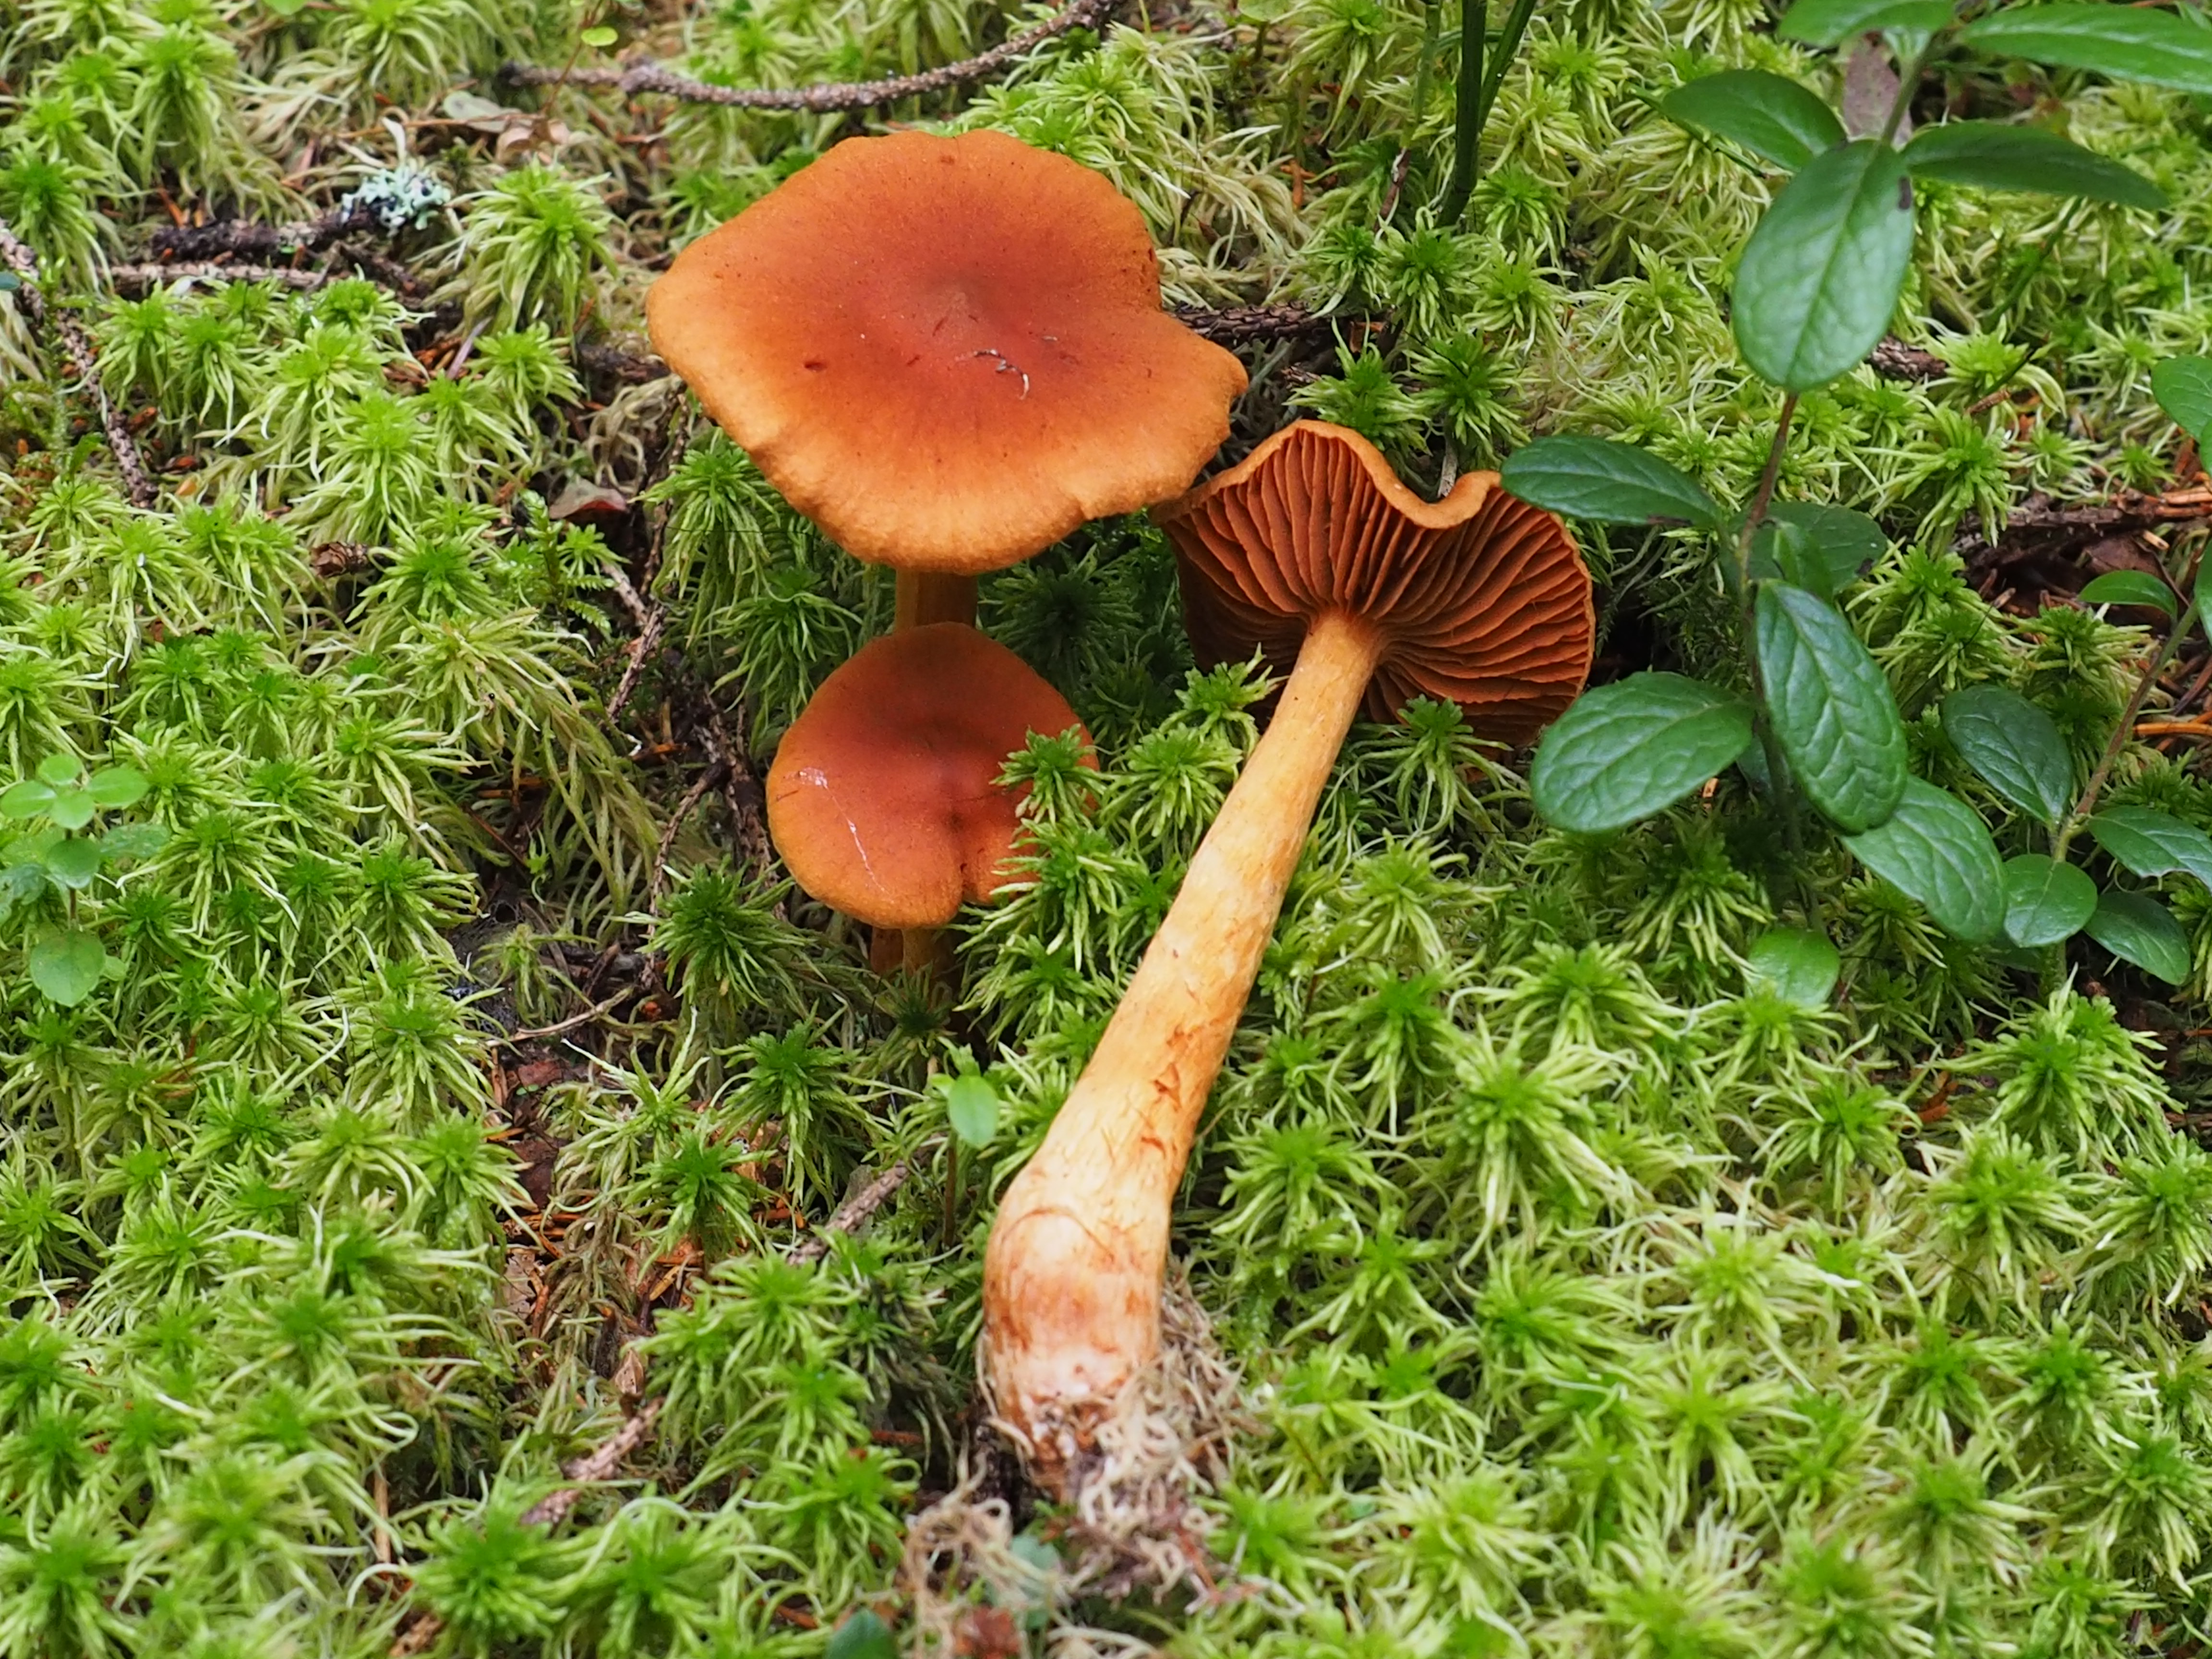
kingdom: Fungi
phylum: Basidiomycota
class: Agaricomycetes
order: Agaricales
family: Cortinariaceae
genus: Cortinarius
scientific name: Cortinarius rubellus
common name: Deadly webcap
